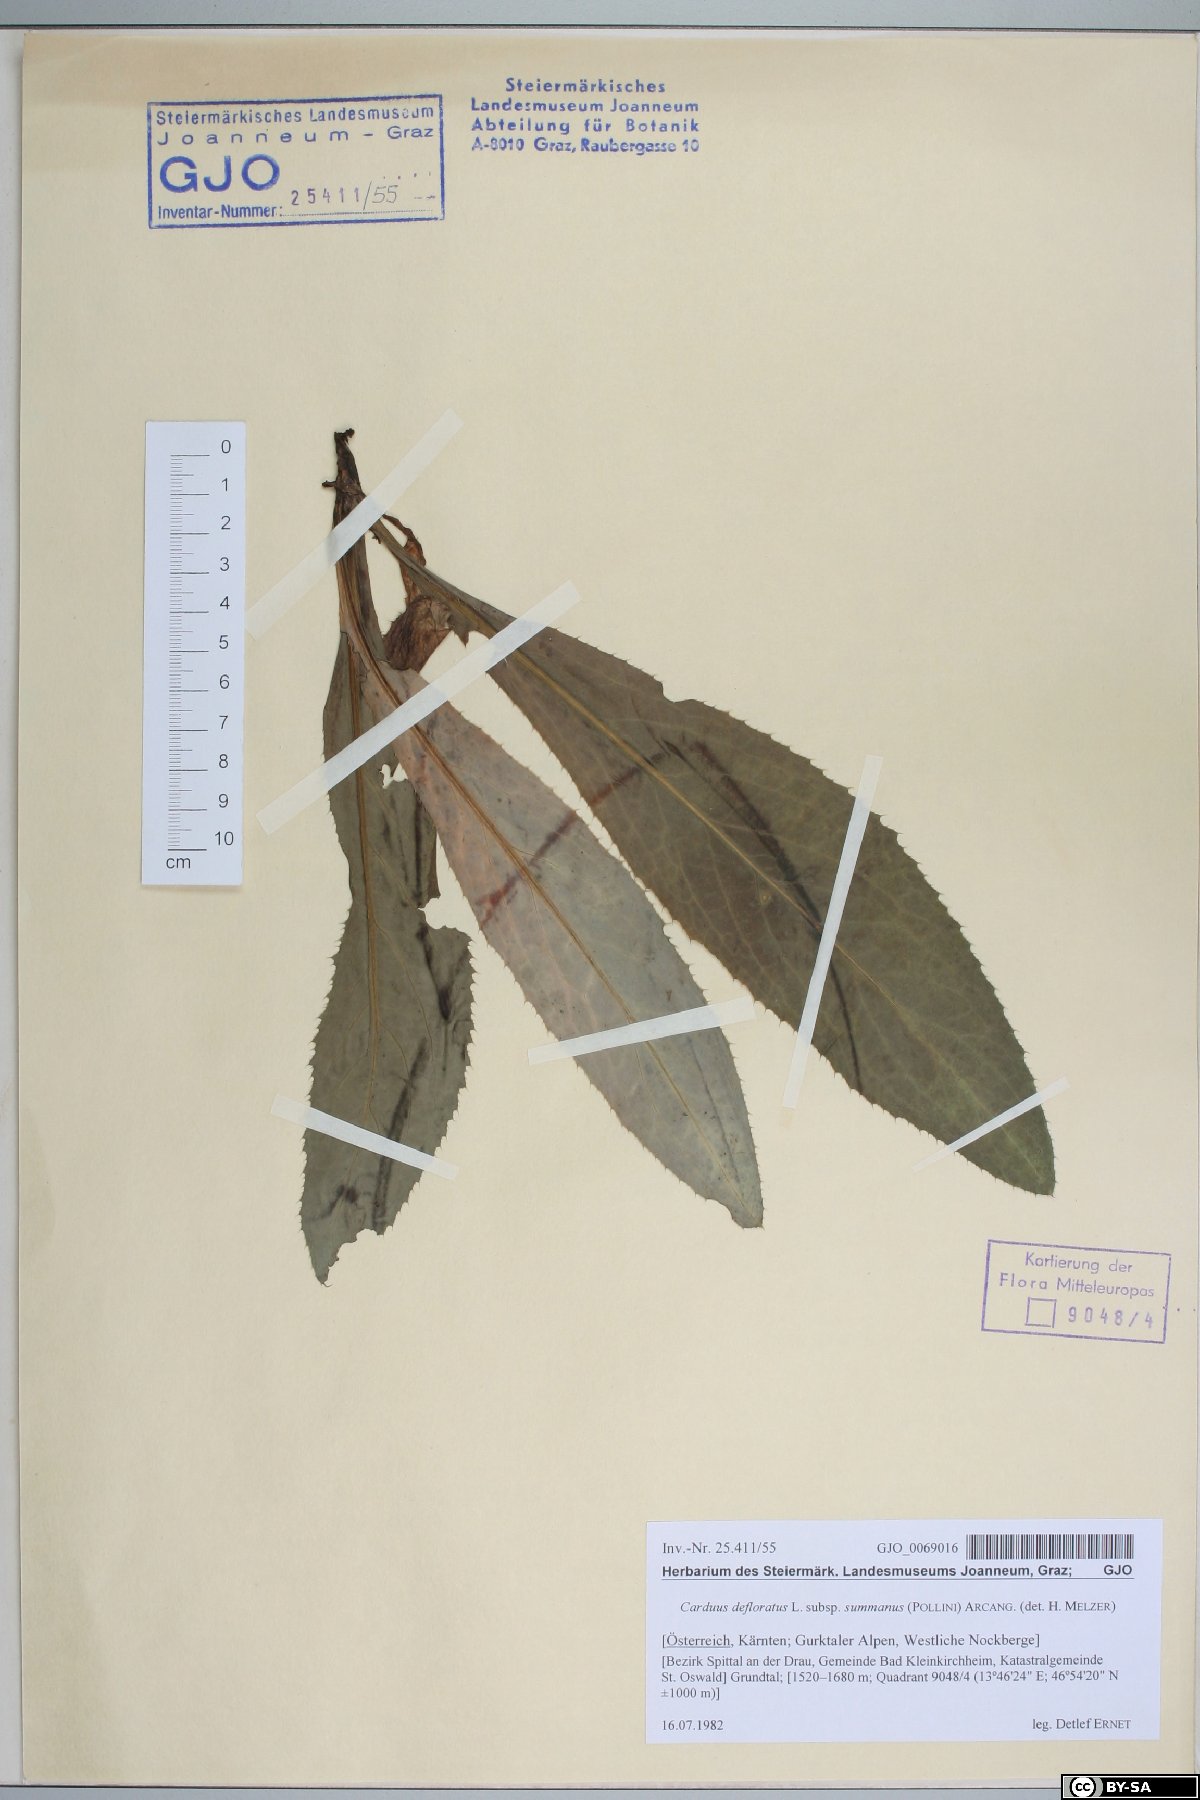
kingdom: Plantae
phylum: Tracheophyta
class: Magnoliopsida
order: Asterales
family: Asteraceae
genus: Carduus
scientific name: Carduus defloratus
